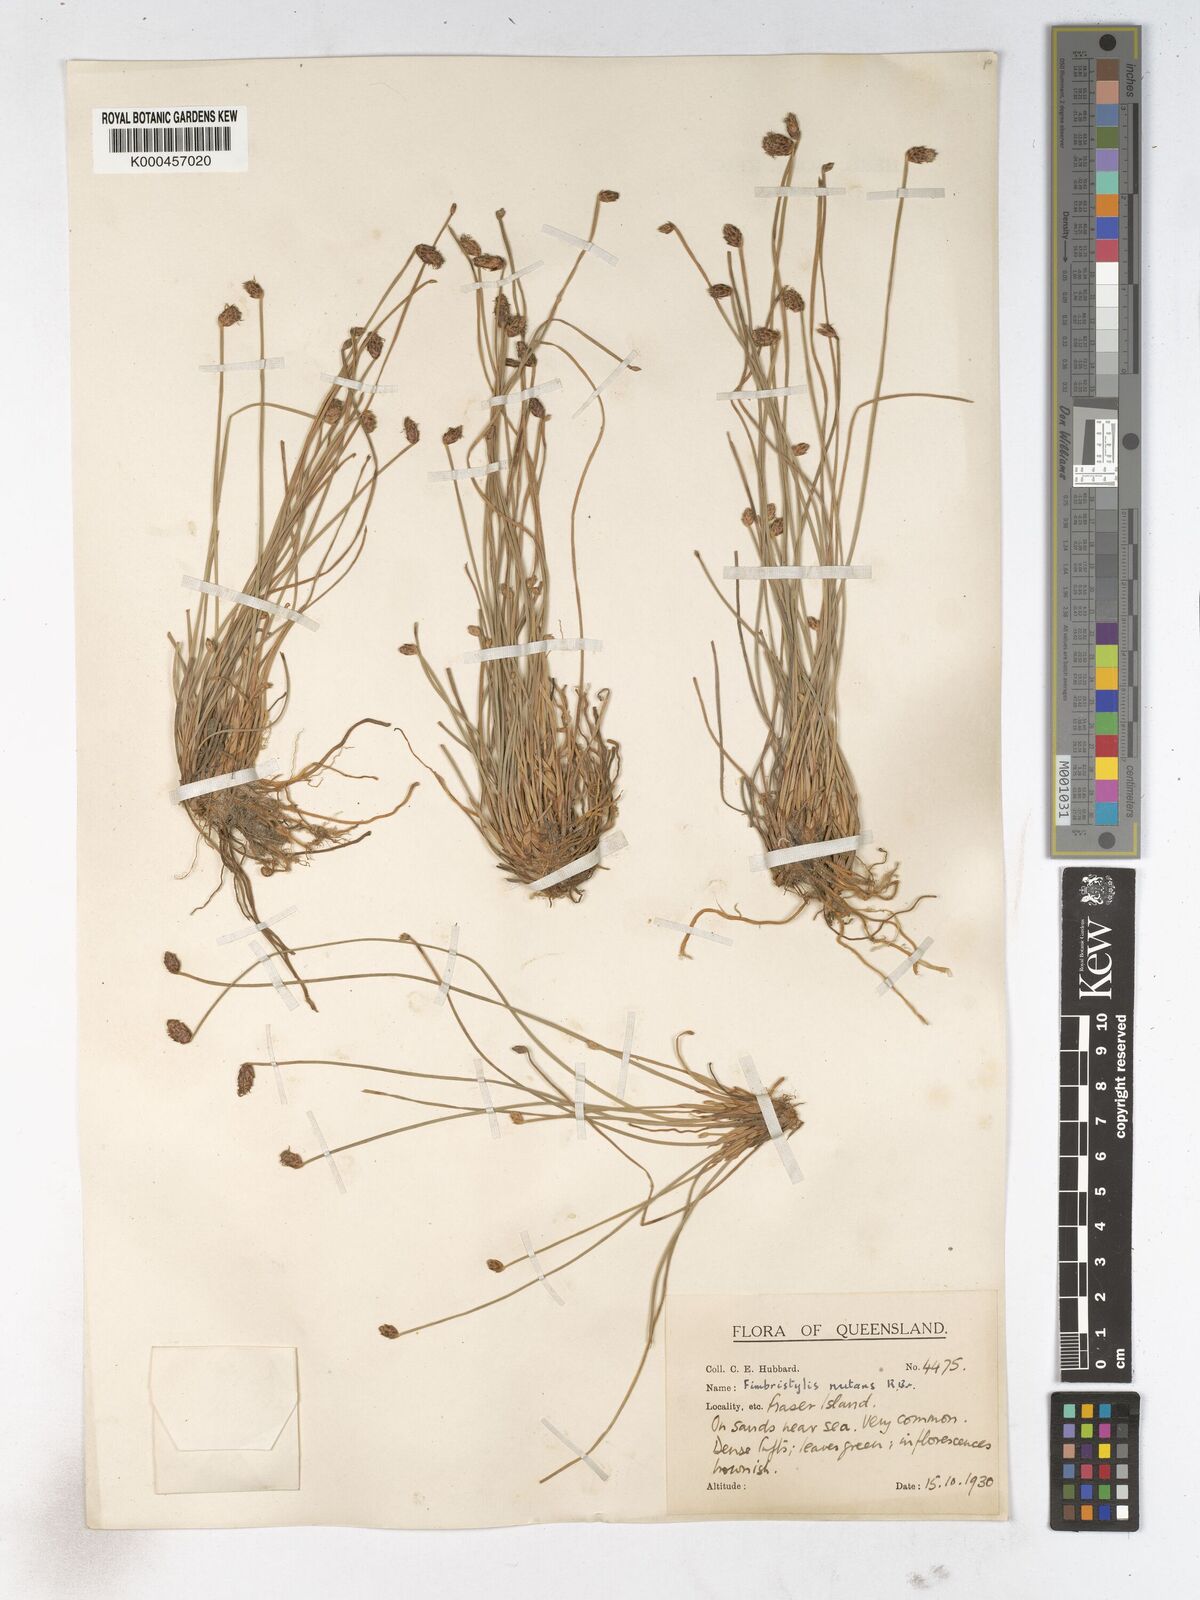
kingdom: Plantae
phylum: Tracheophyta
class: Liliopsida
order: Poales
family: Cyperaceae
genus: Fimbristylis
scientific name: Fimbristylis nutans
